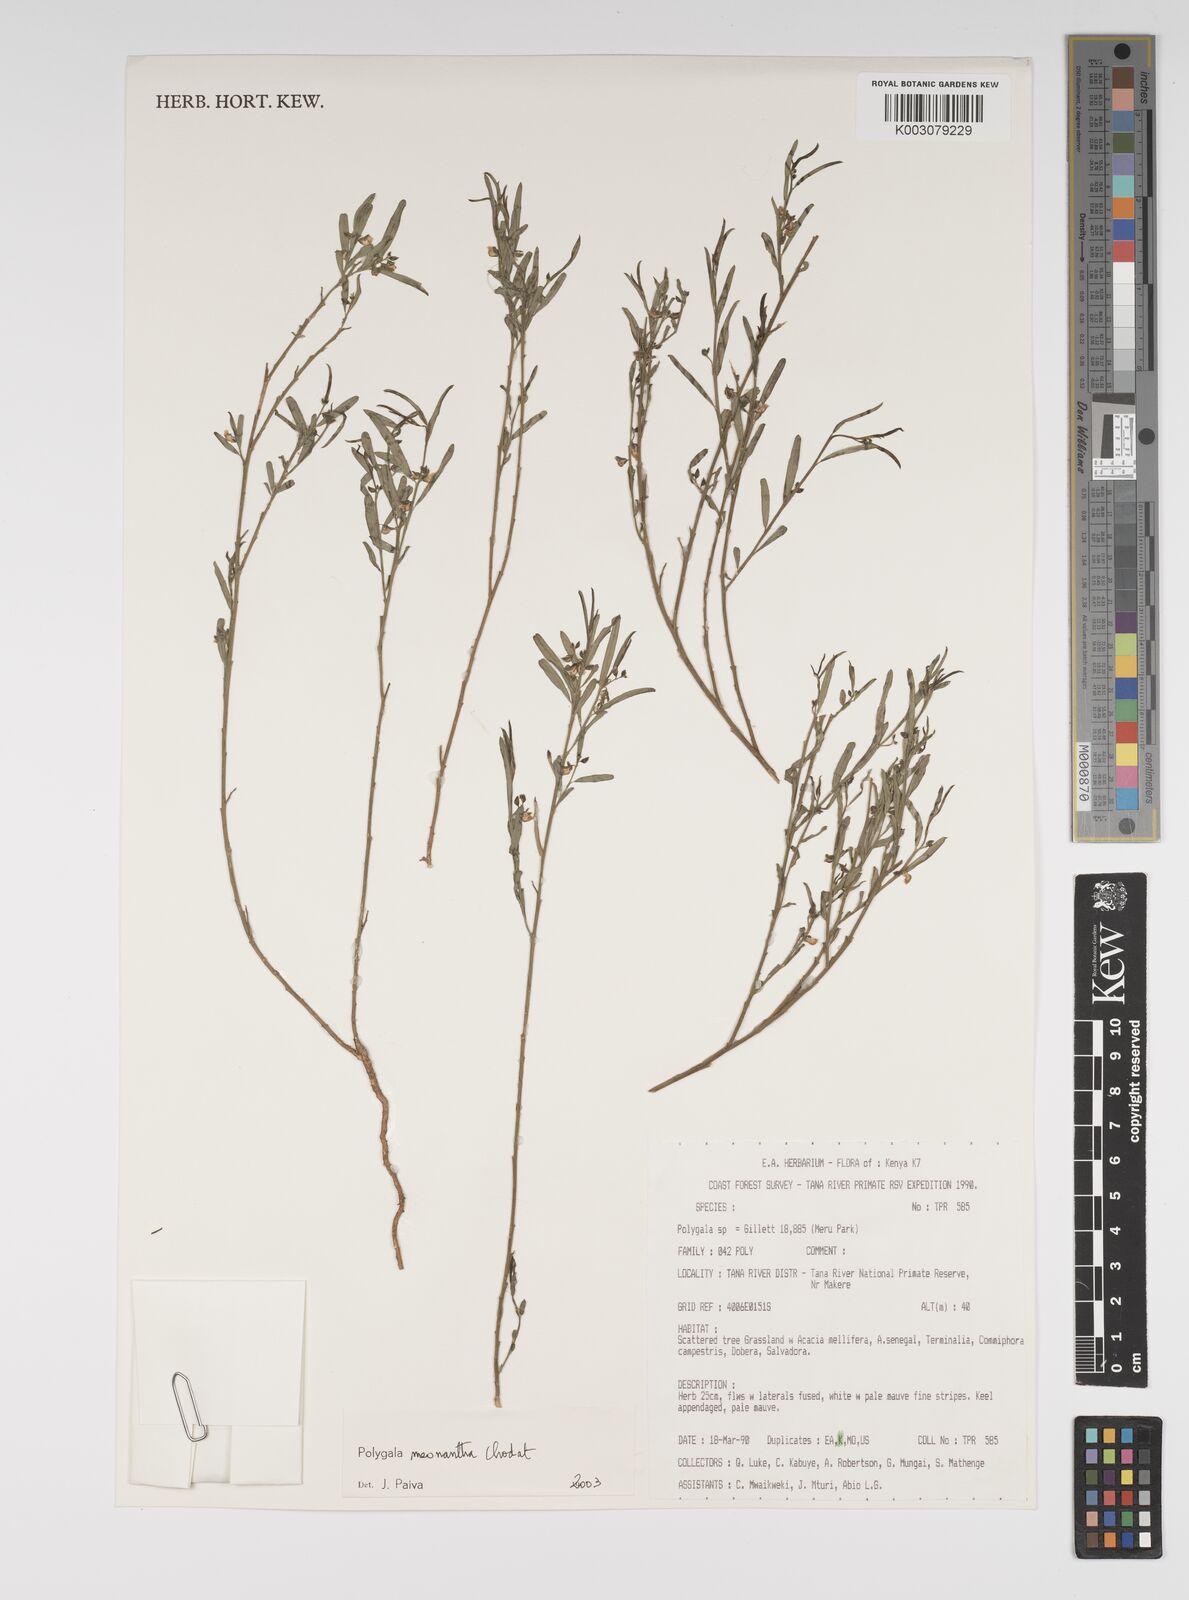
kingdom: Plantae
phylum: Tracheophyta
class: Magnoliopsida
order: Fabales
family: Polygalaceae
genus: Polygala
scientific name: Polygala meonantha
